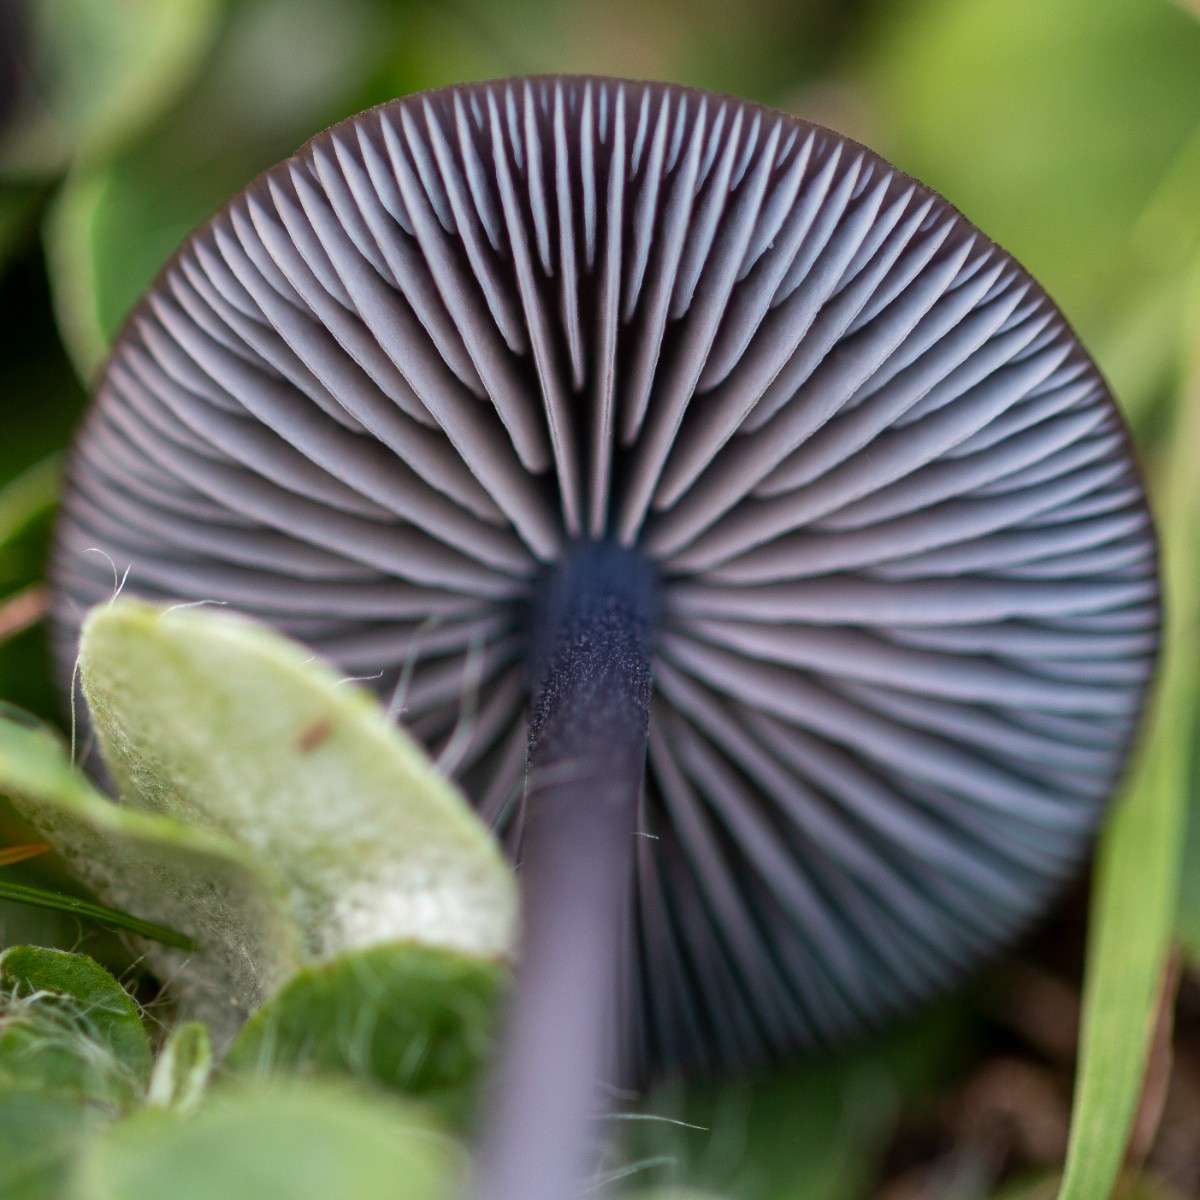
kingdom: Fungi
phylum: Basidiomycota
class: Agaricomycetes
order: Agaricales
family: Entolomataceae
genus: Entoloma
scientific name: Entoloma chalybeum
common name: blåbladet rødblad
